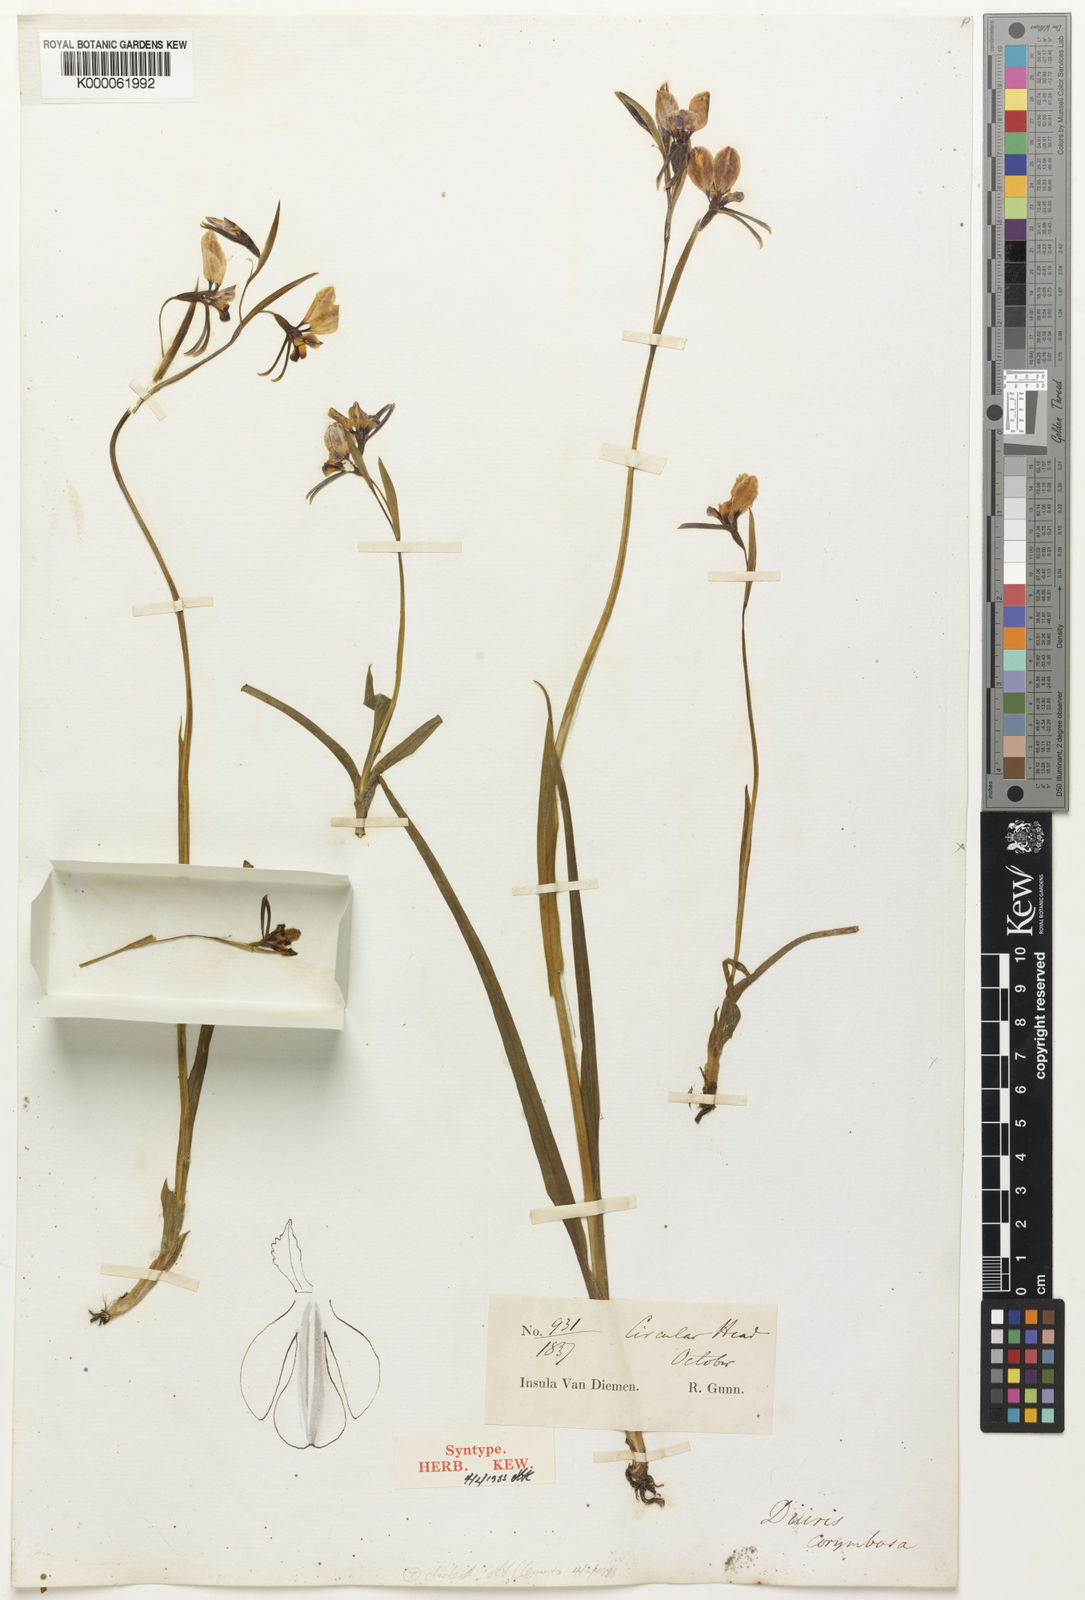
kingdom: Plantae
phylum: Tracheophyta
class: Liliopsida
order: Asparagales
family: Orchidaceae
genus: Diuris
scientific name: Diuris corymbosa
